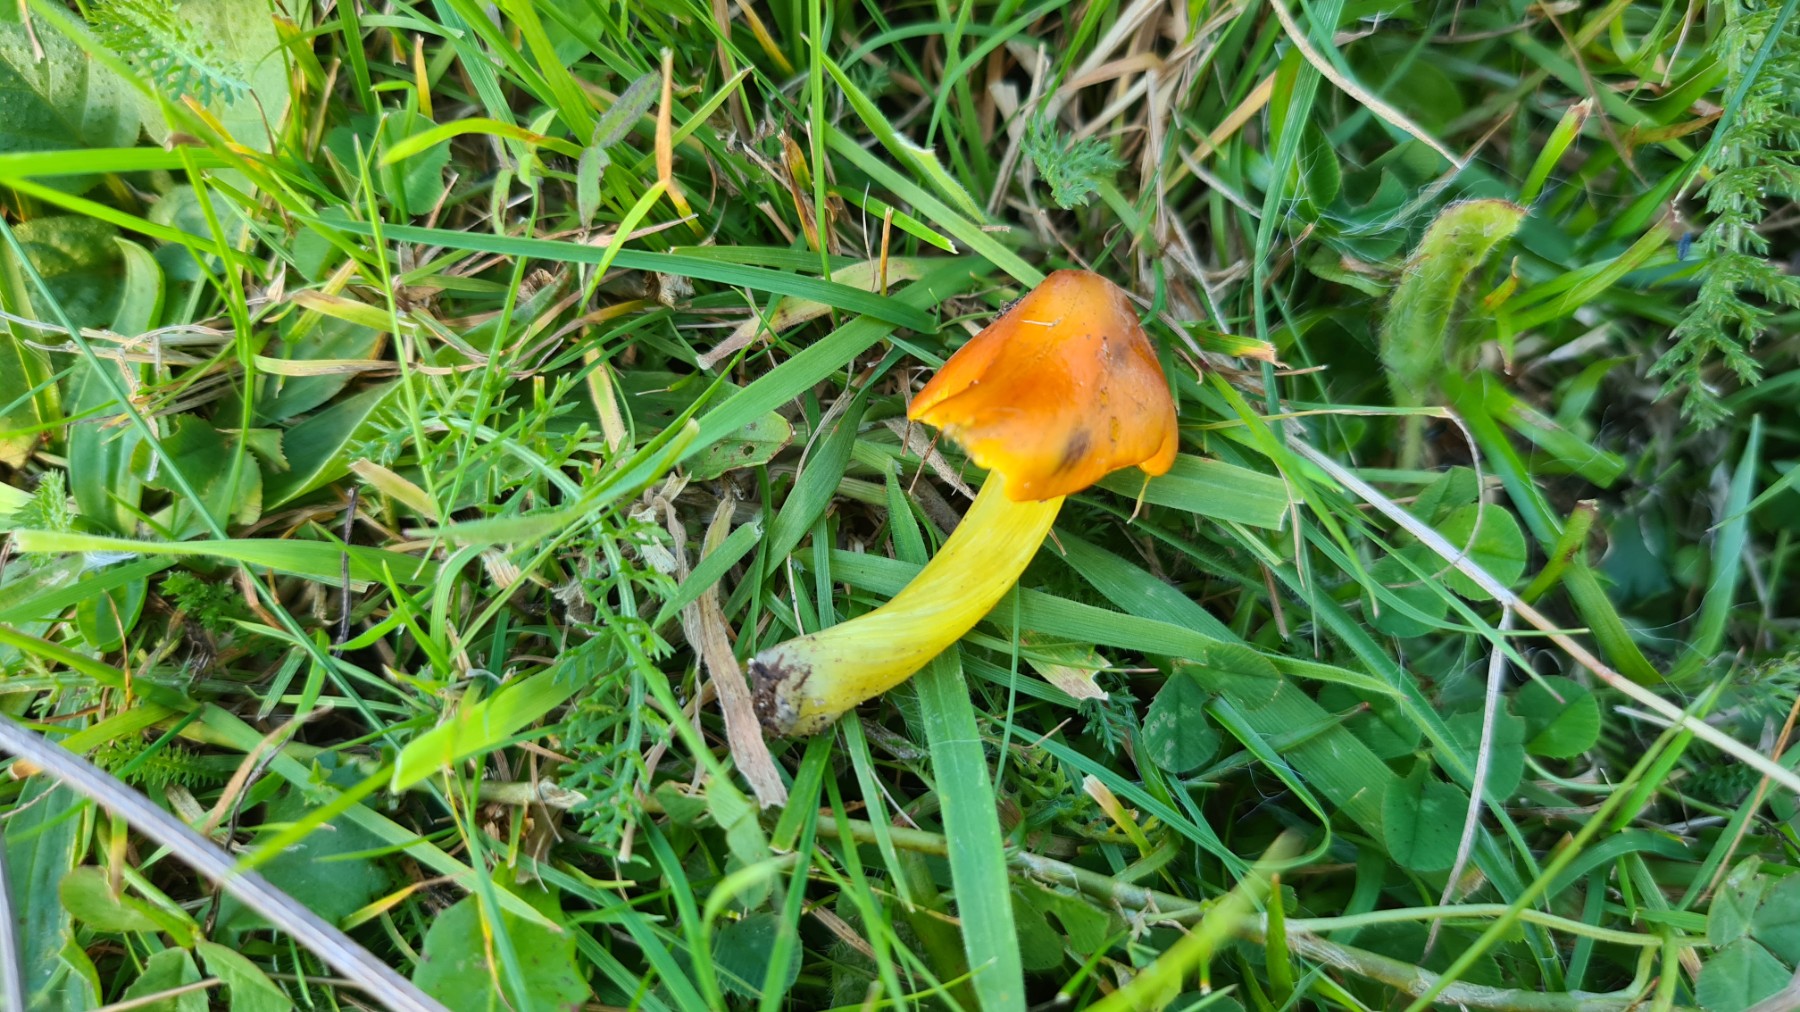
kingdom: Fungi
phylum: Basidiomycota
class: Agaricomycetes
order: Agaricales
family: Hygrophoraceae
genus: Hygrocybe
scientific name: Hygrocybe conica
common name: kegle-vokshat
